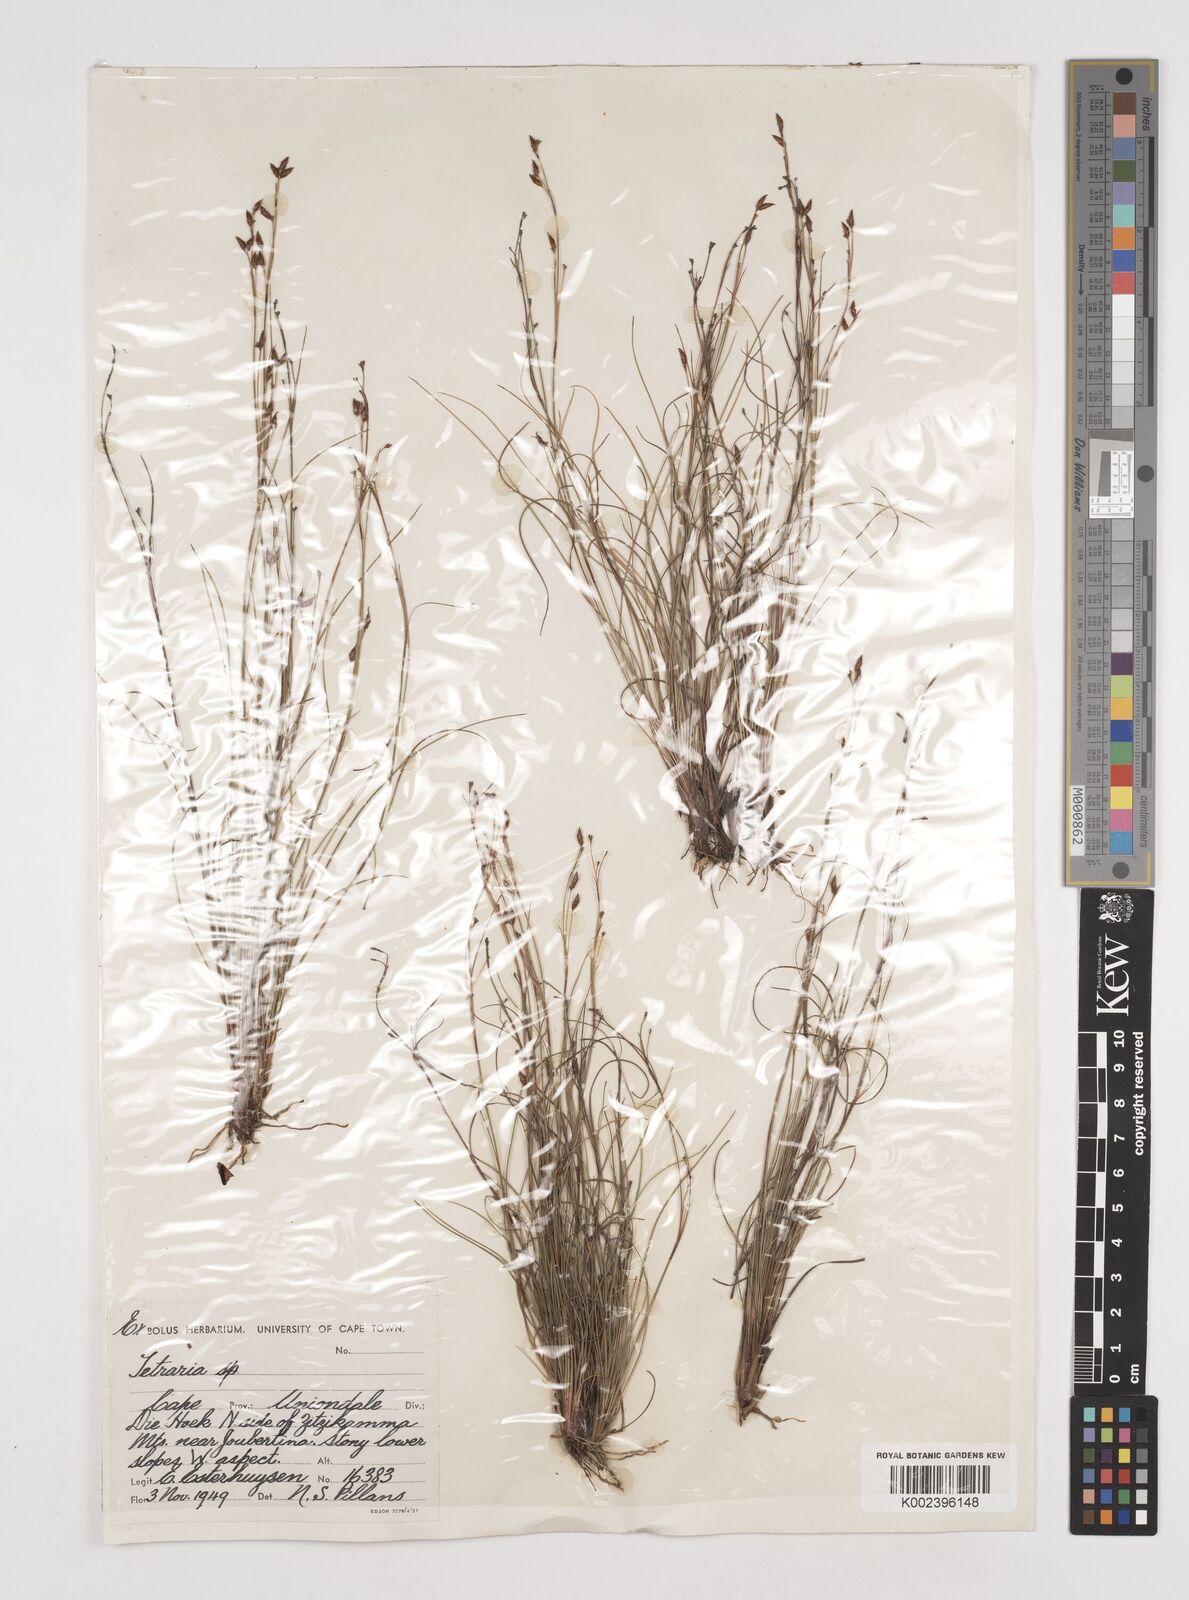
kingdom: Plantae
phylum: Tracheophyta
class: Liliopsida
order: Poales
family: Cyperaceae
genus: Tetraria
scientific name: Tetraria burmanni
